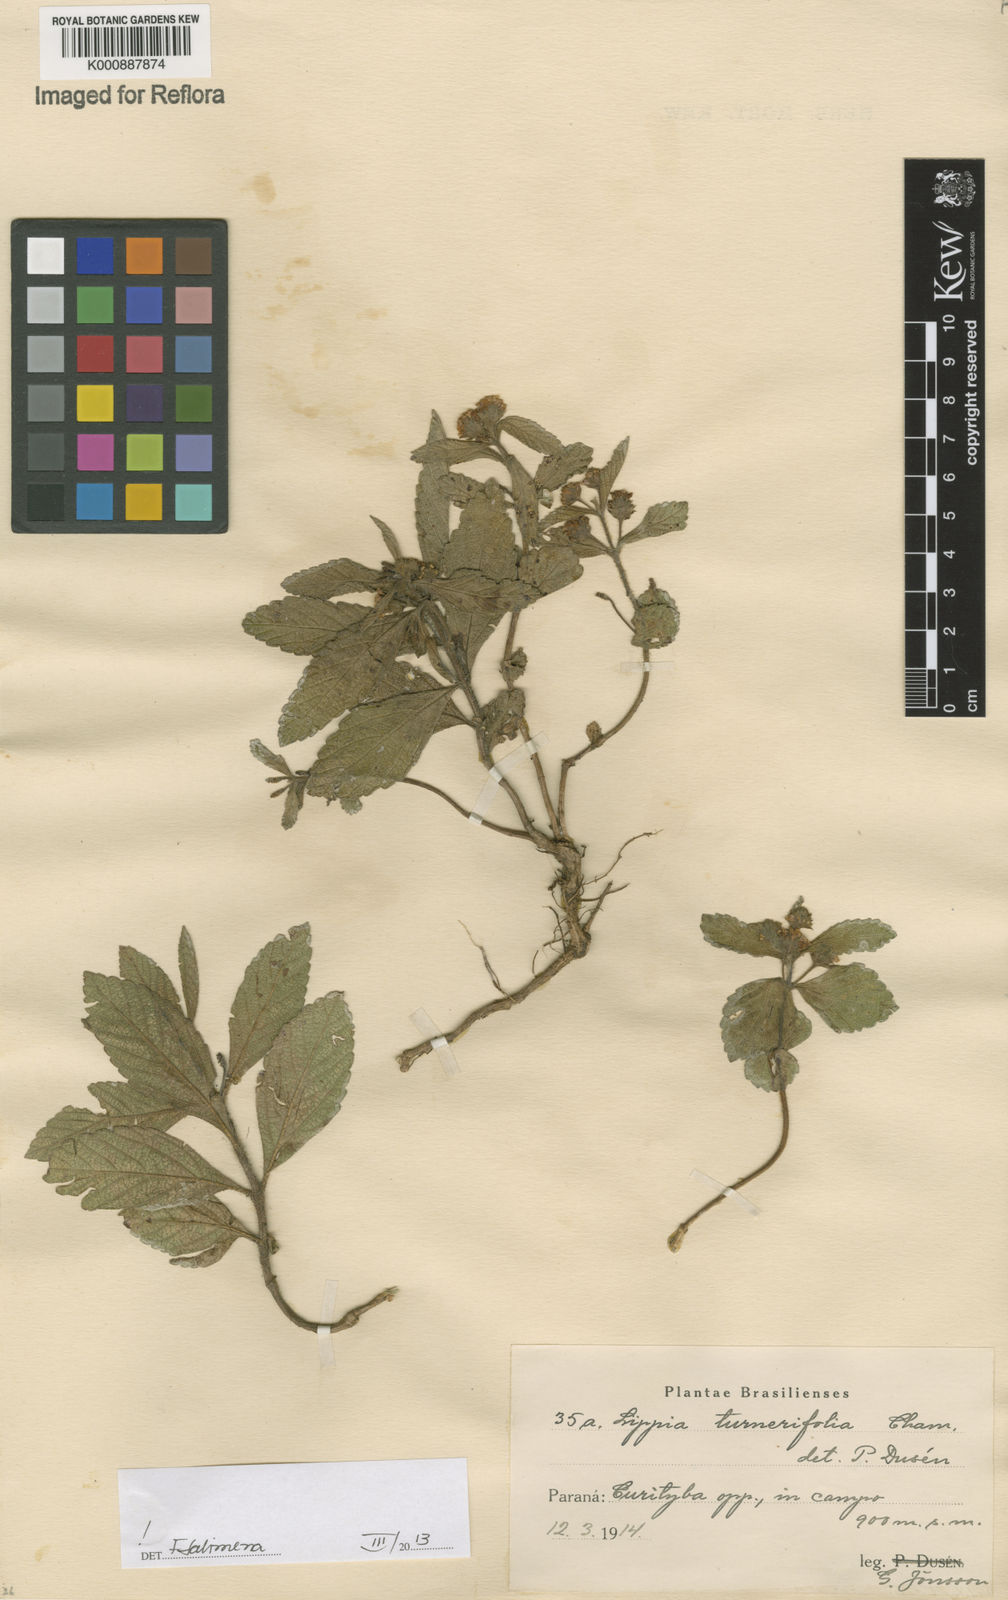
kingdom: Plantae
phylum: Tracheophyta
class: Magnoliopsida
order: Lamiales
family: Verbenaceae
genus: Lippia
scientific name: Lippia turnerifolia
